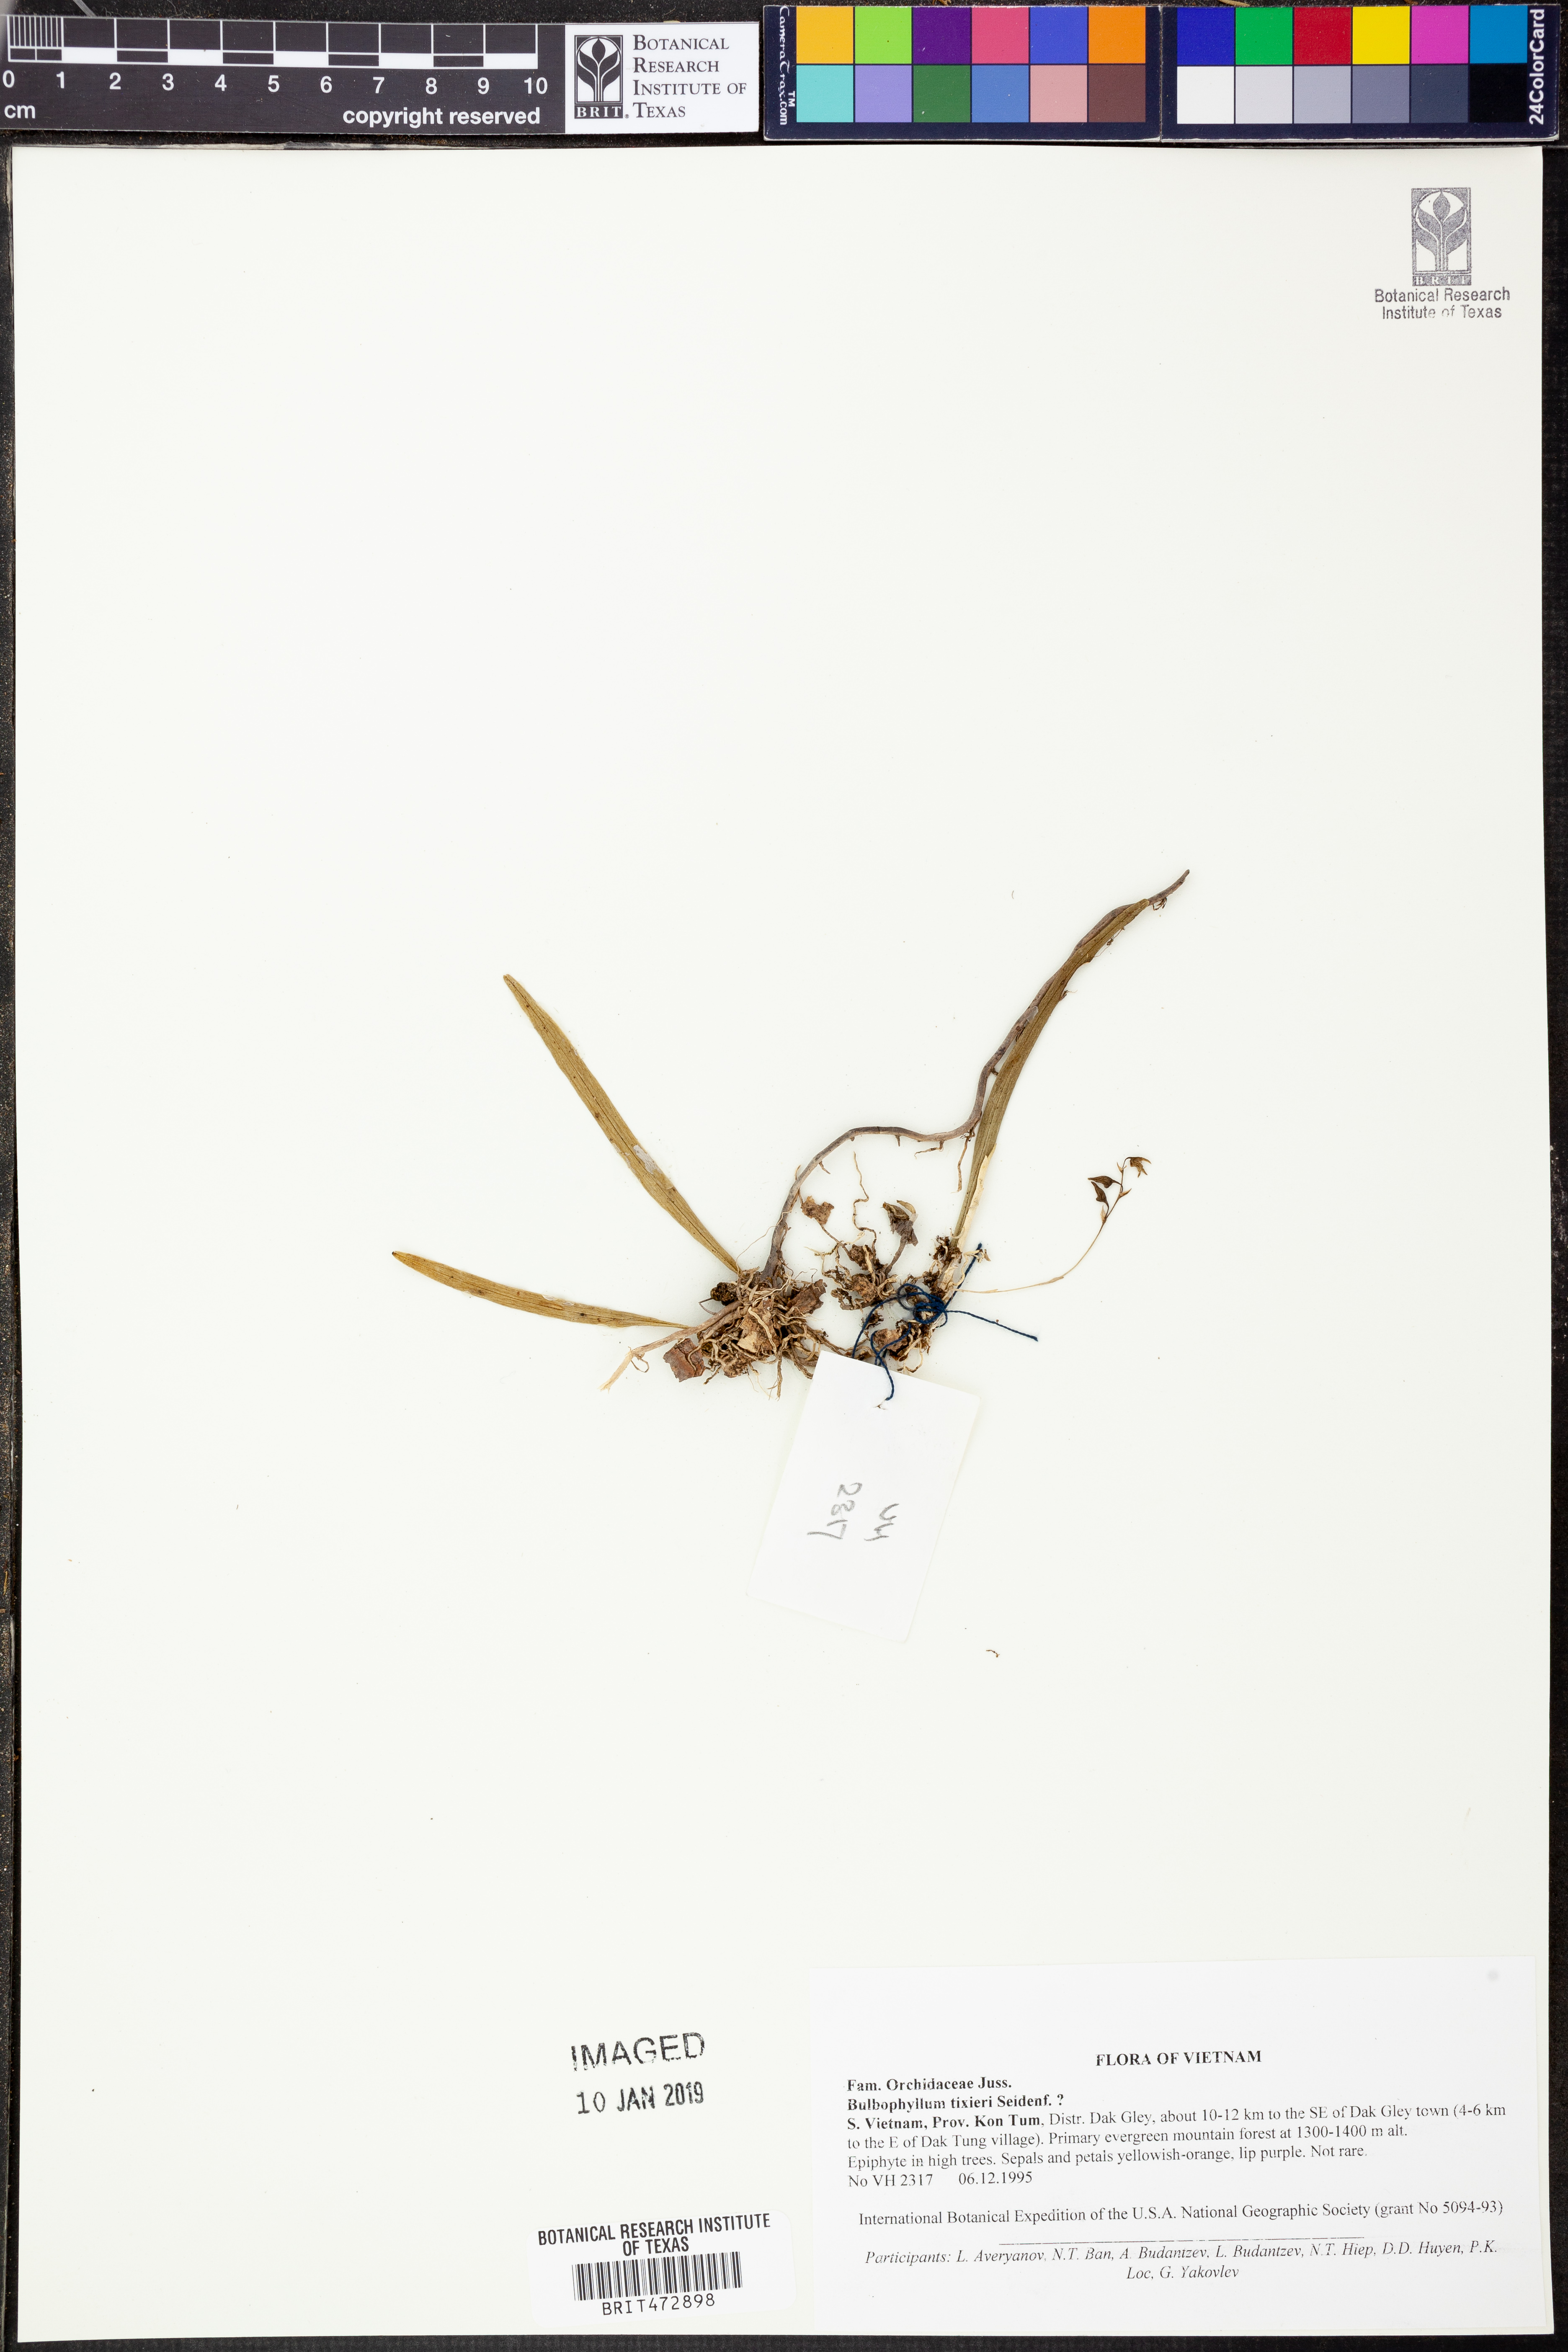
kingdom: Plantae
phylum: Tracheophyta
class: Liliopsida
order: Asparagales
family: Orchidaceae
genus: Bulbophyllum
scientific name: Bulbophyllum tixieri
